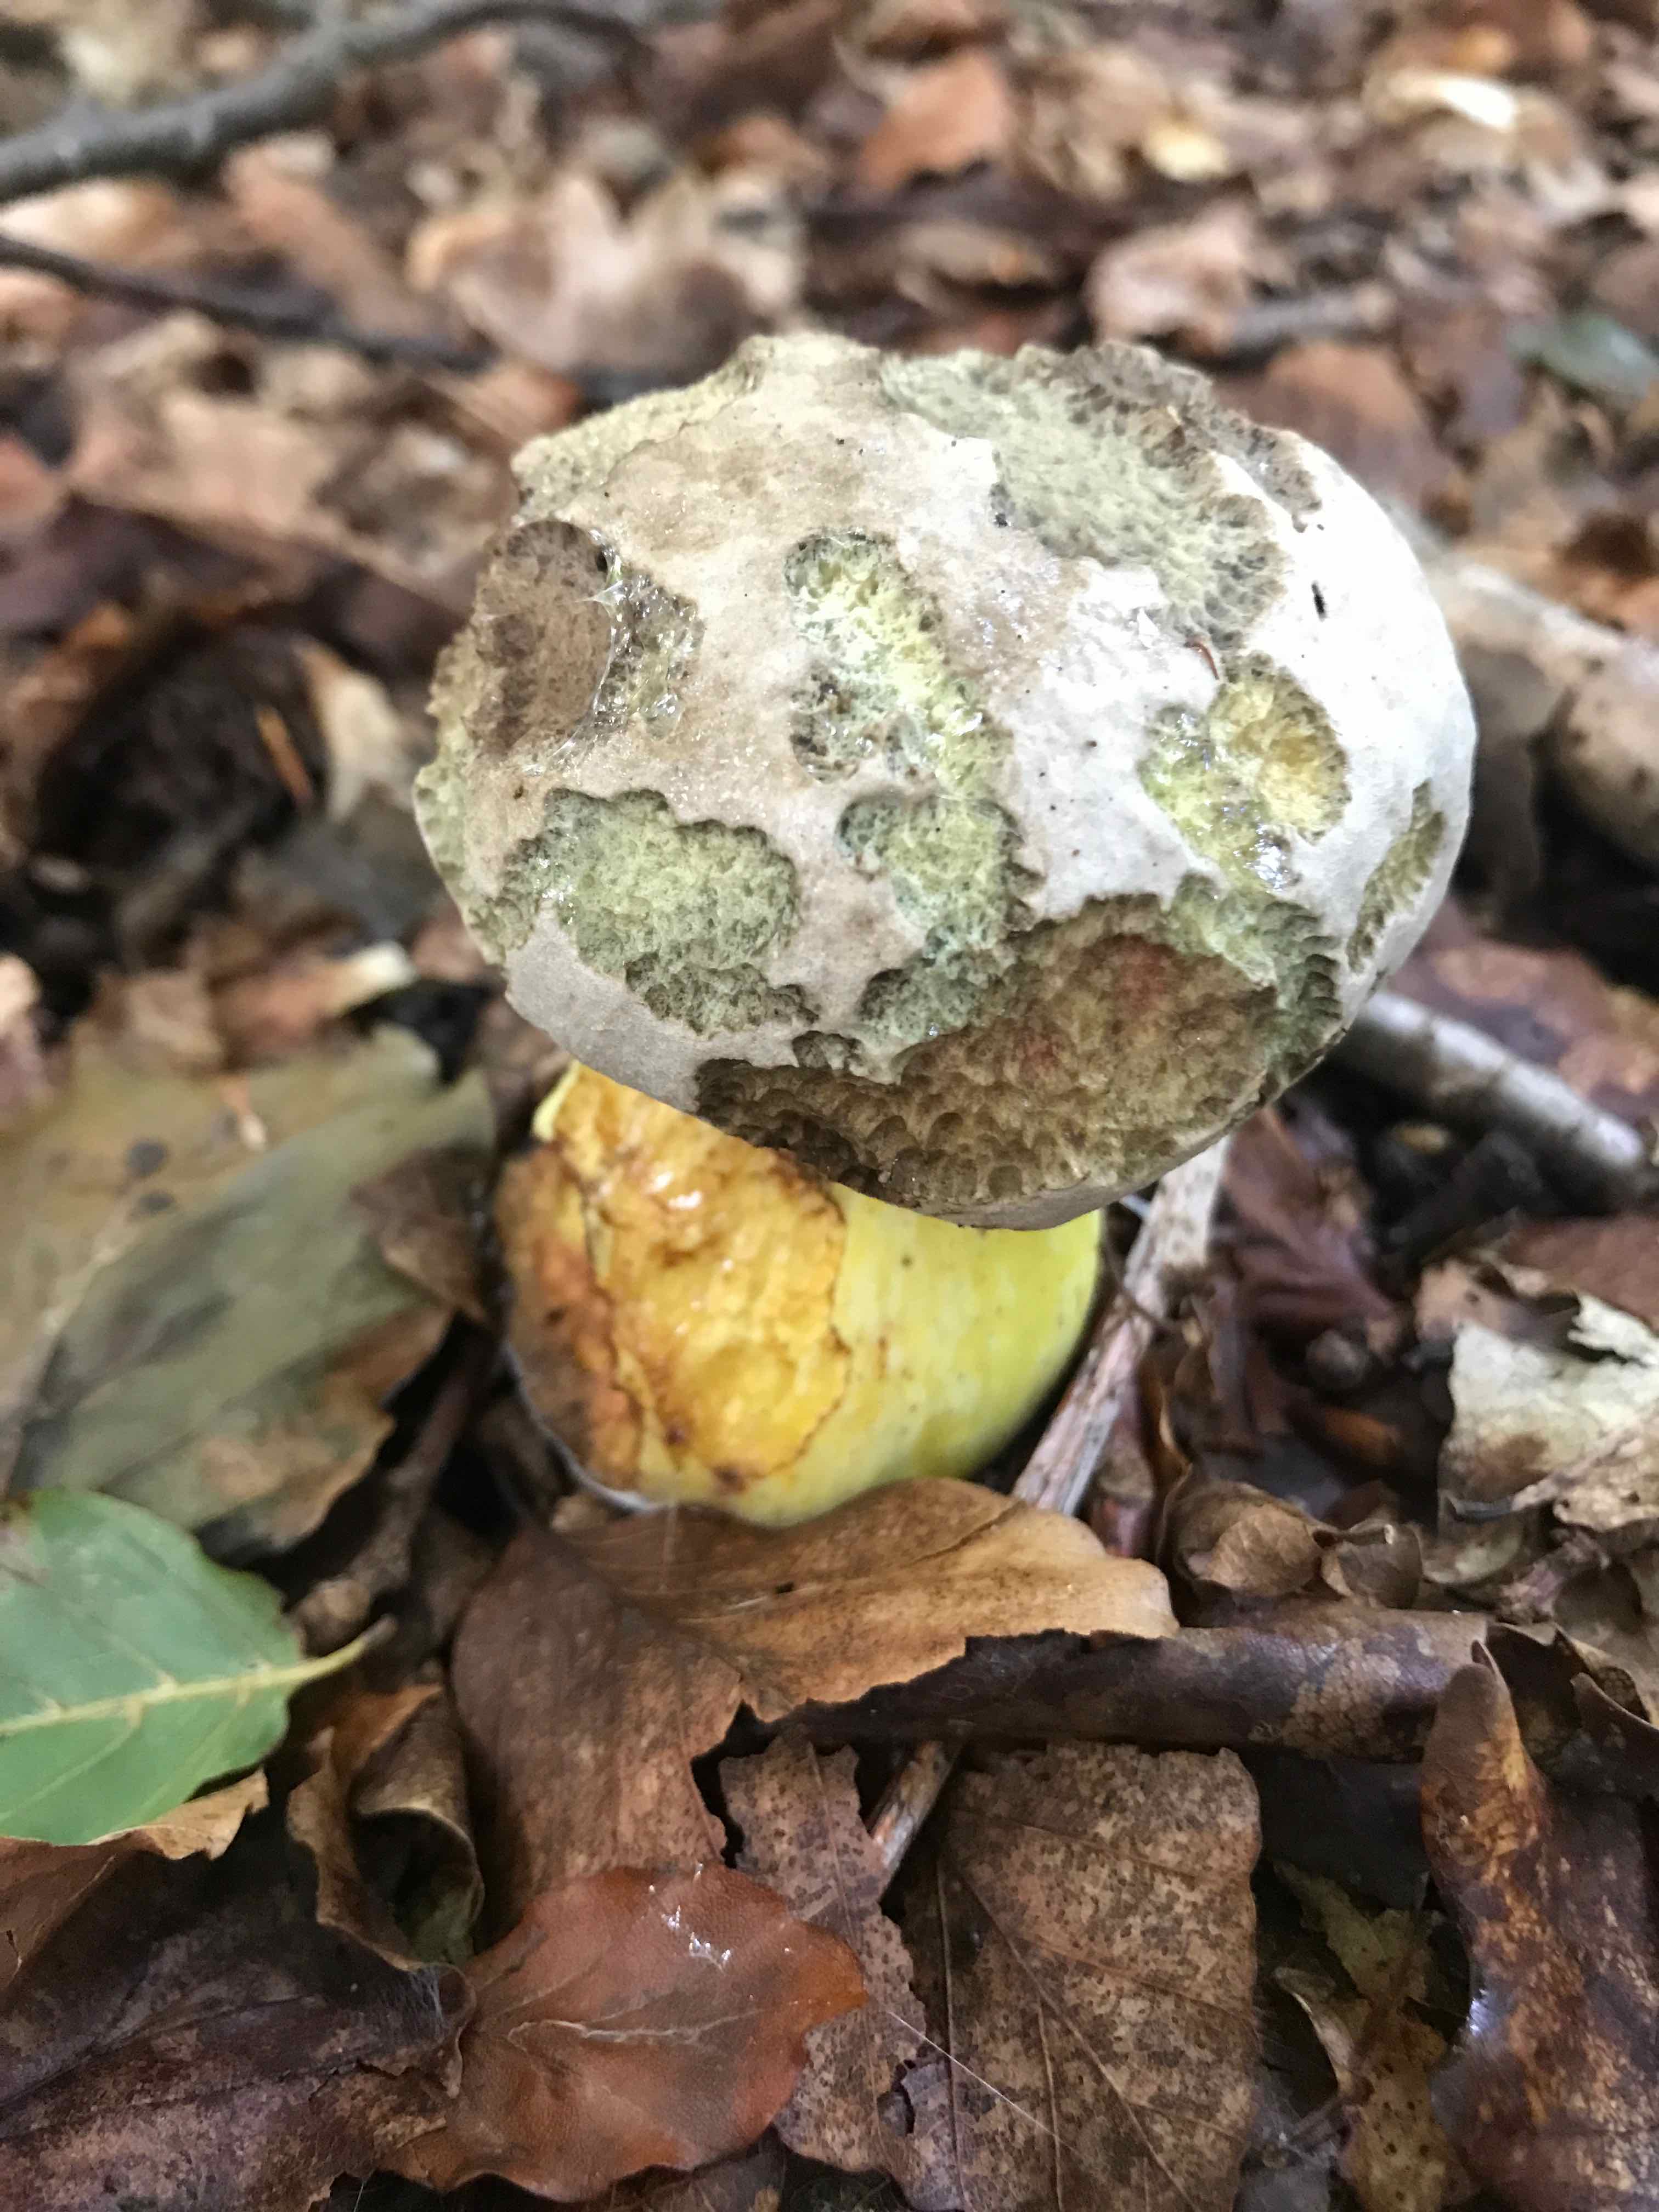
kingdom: Fungi
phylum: Basidiomycota
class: Agaricomycetes
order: Boletales
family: Boletaceae
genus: Caloboletus
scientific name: Caloboletus radicans
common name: rod-rørhat
